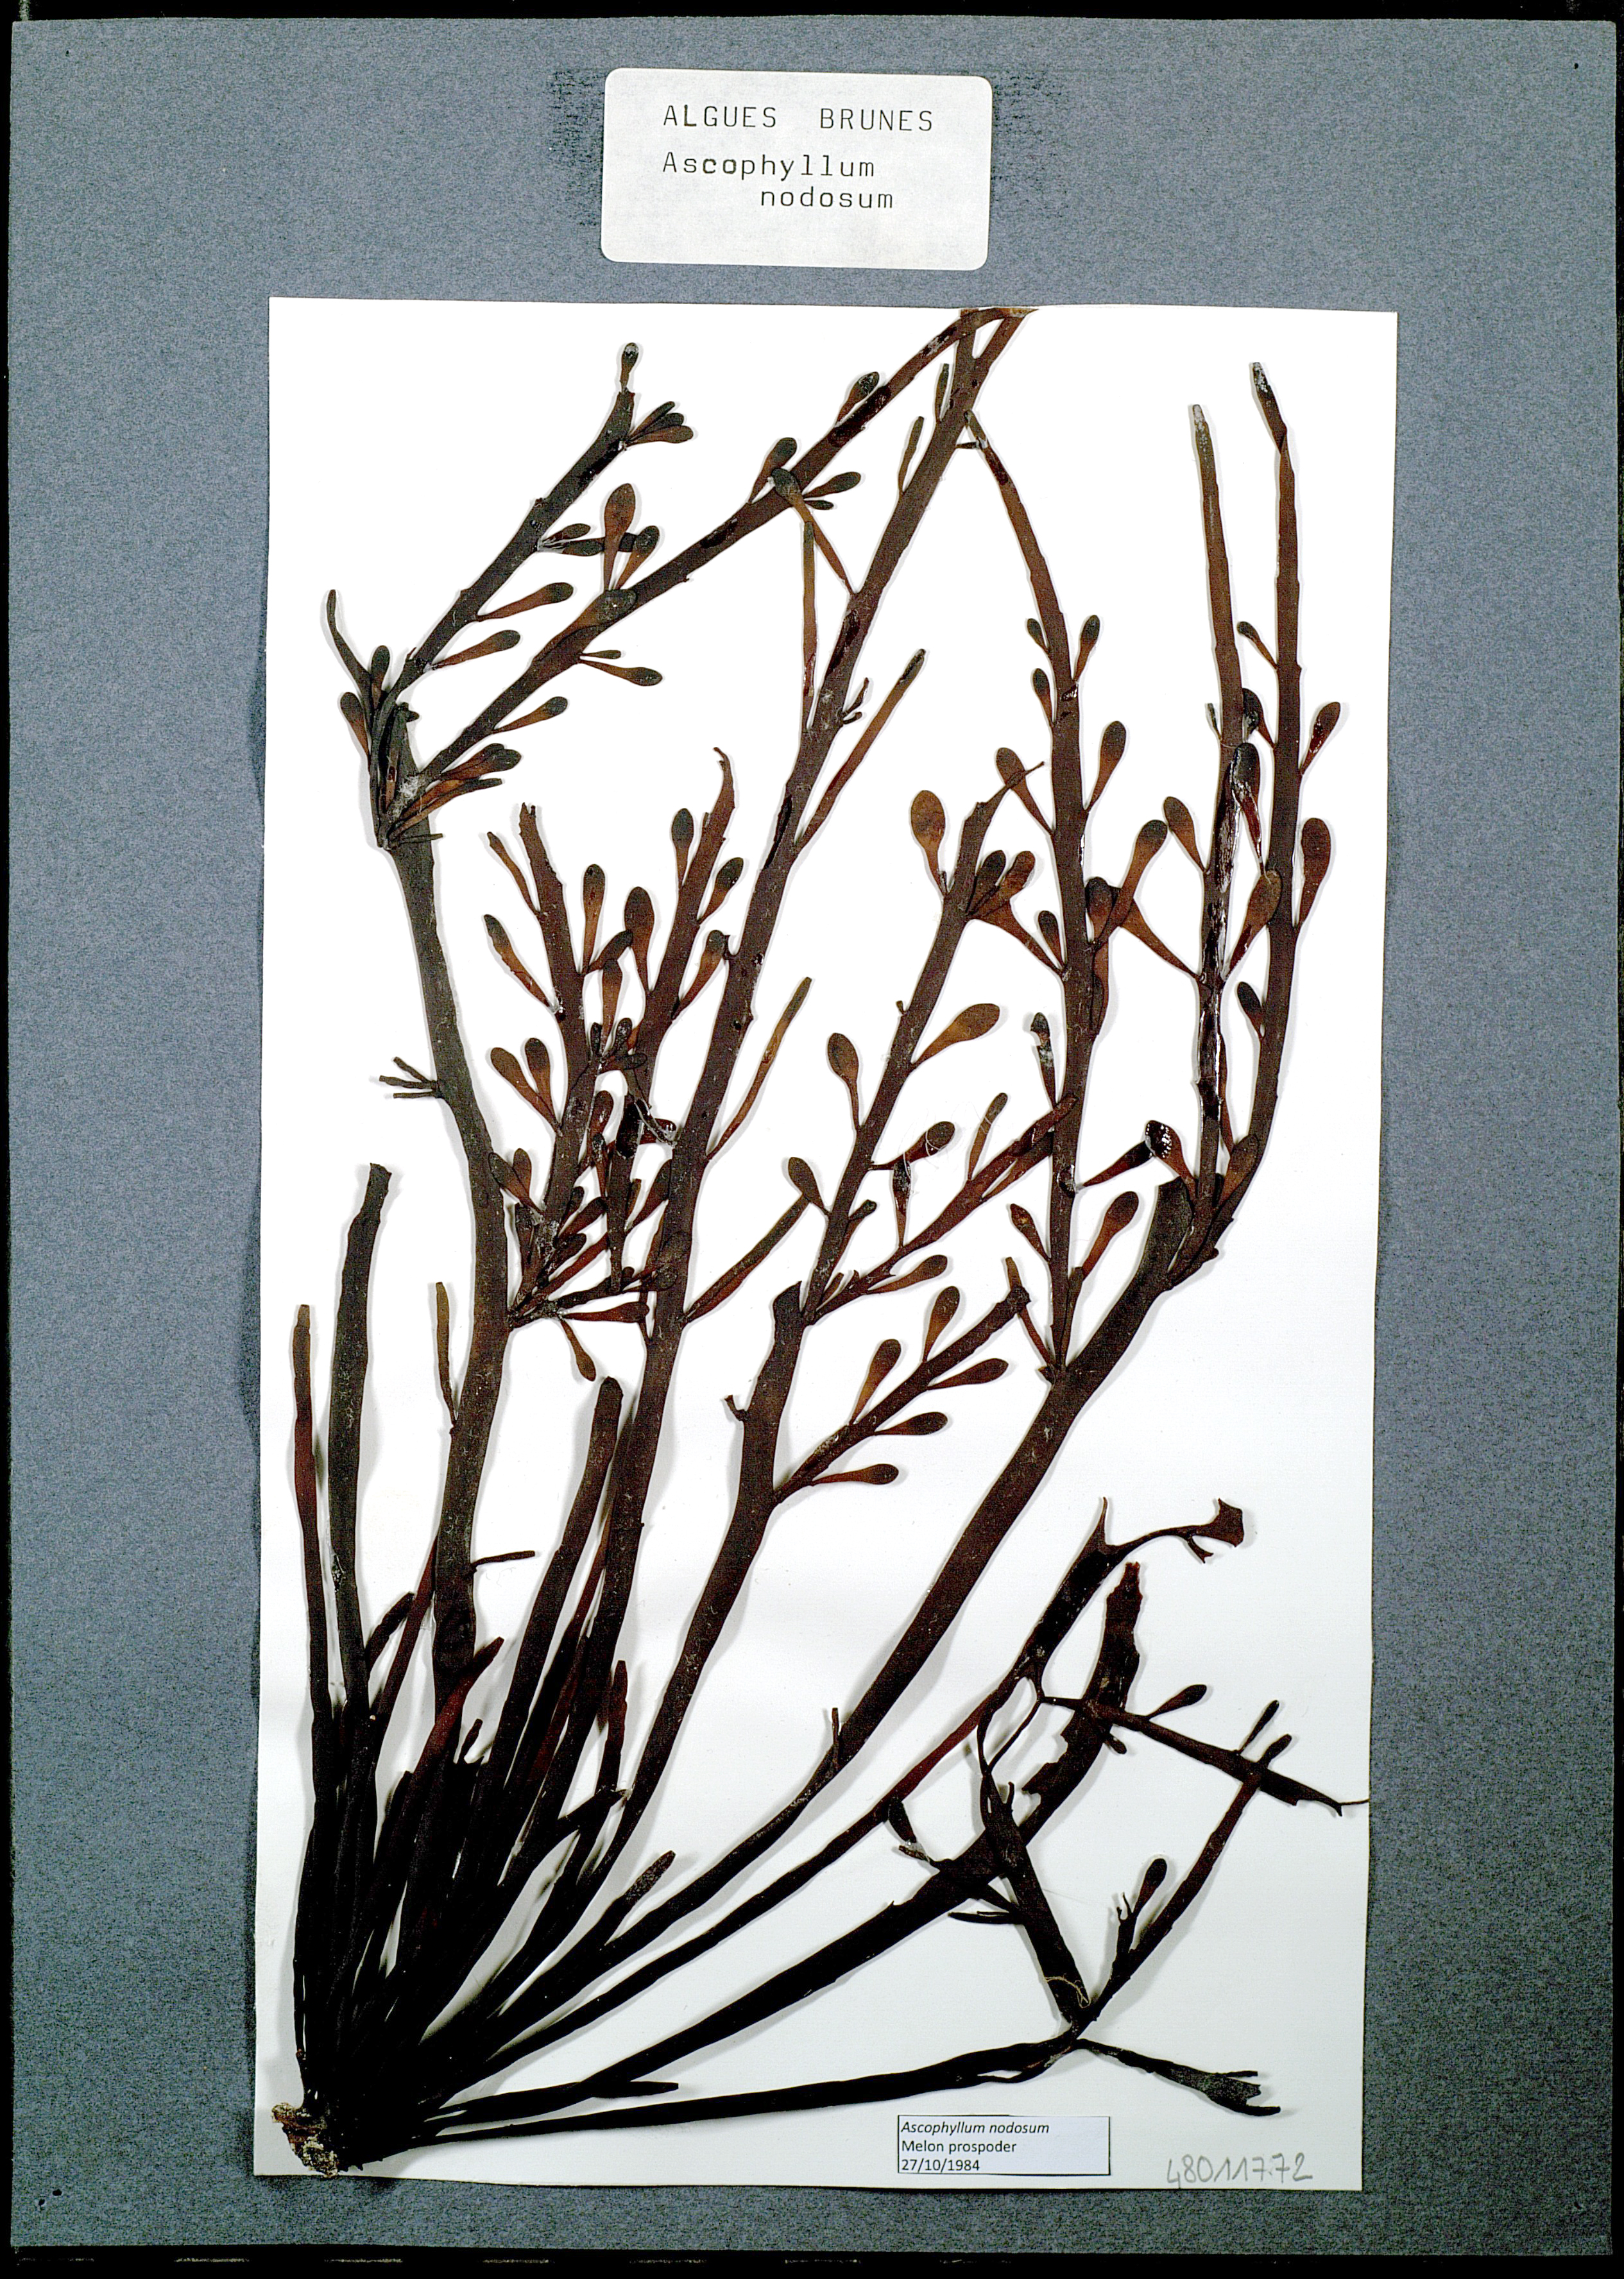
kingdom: Chromista
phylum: Ochrophyta
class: Phaeophyceae
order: Fucales
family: Fucaceae
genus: Ascophyllum
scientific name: Ascophyllum nodosum
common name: Knotted wrack
